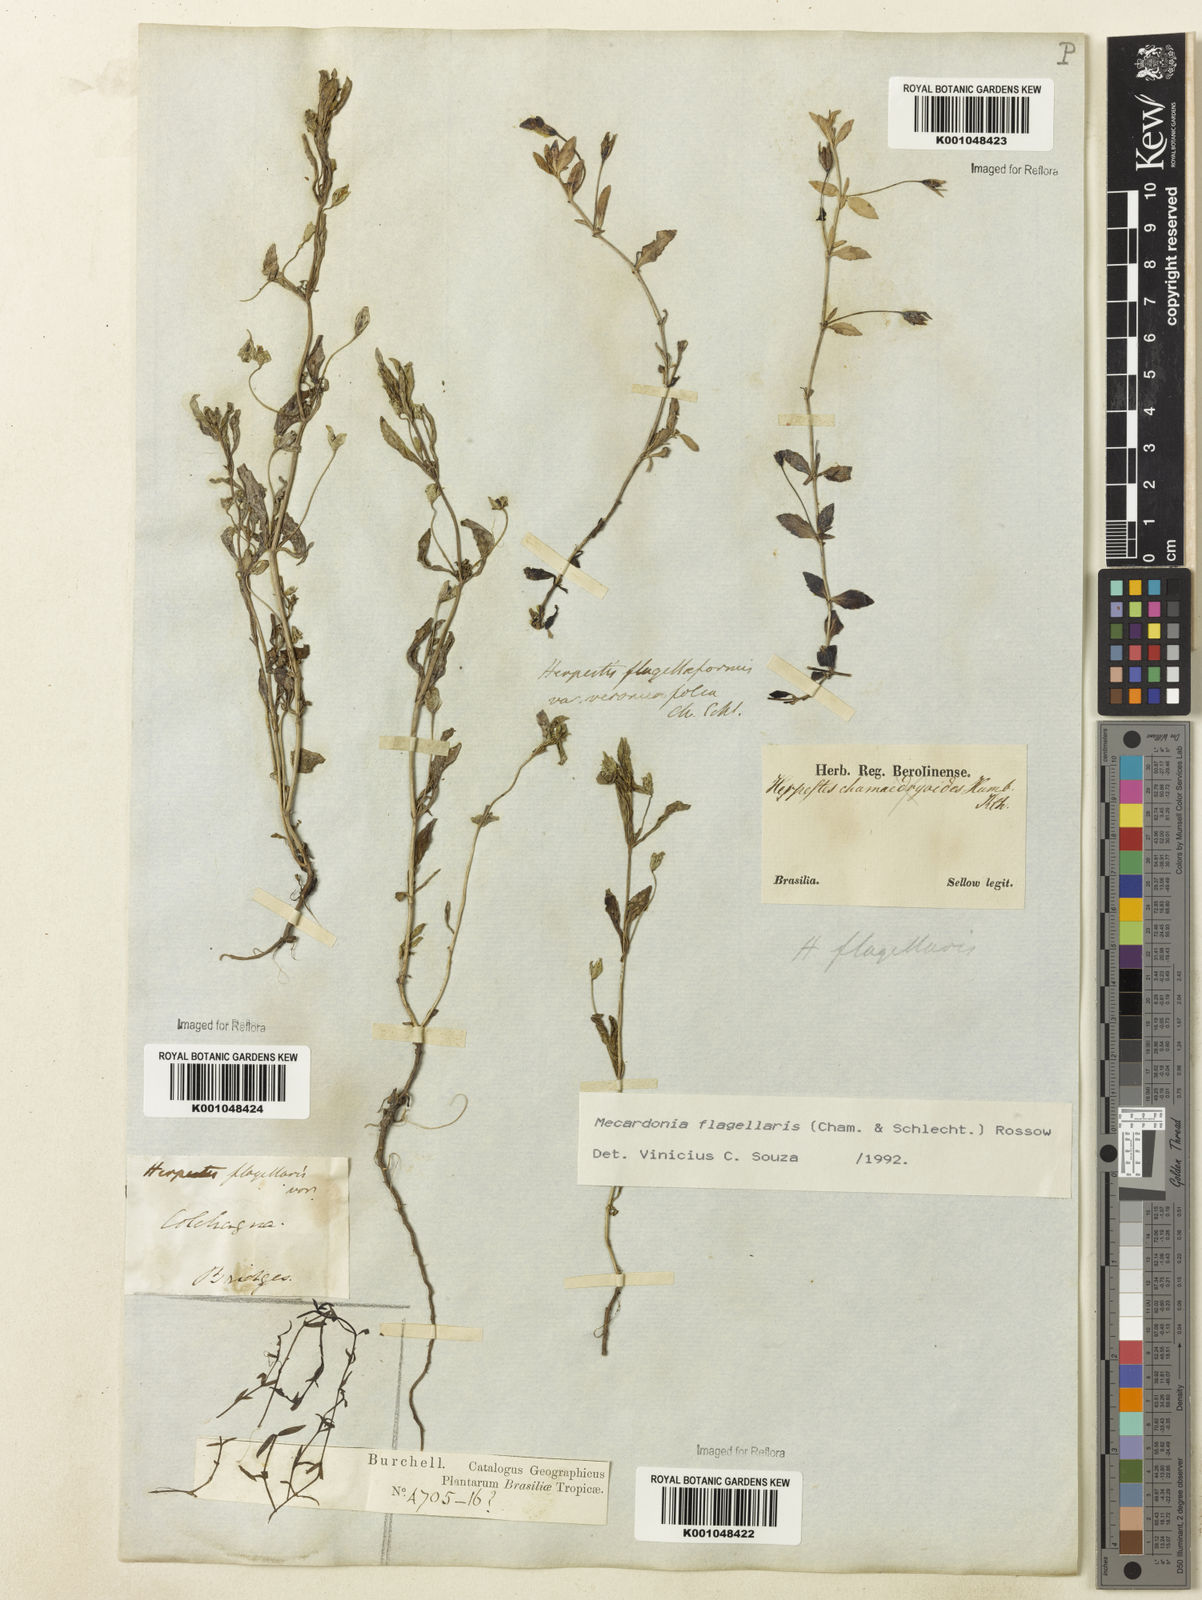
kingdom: Plantae
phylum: Tracheophyta
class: Magnoliopsida
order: Lamiales
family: Plantaginaceae
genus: Mecardonia
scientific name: Mecardonia flagellaris
